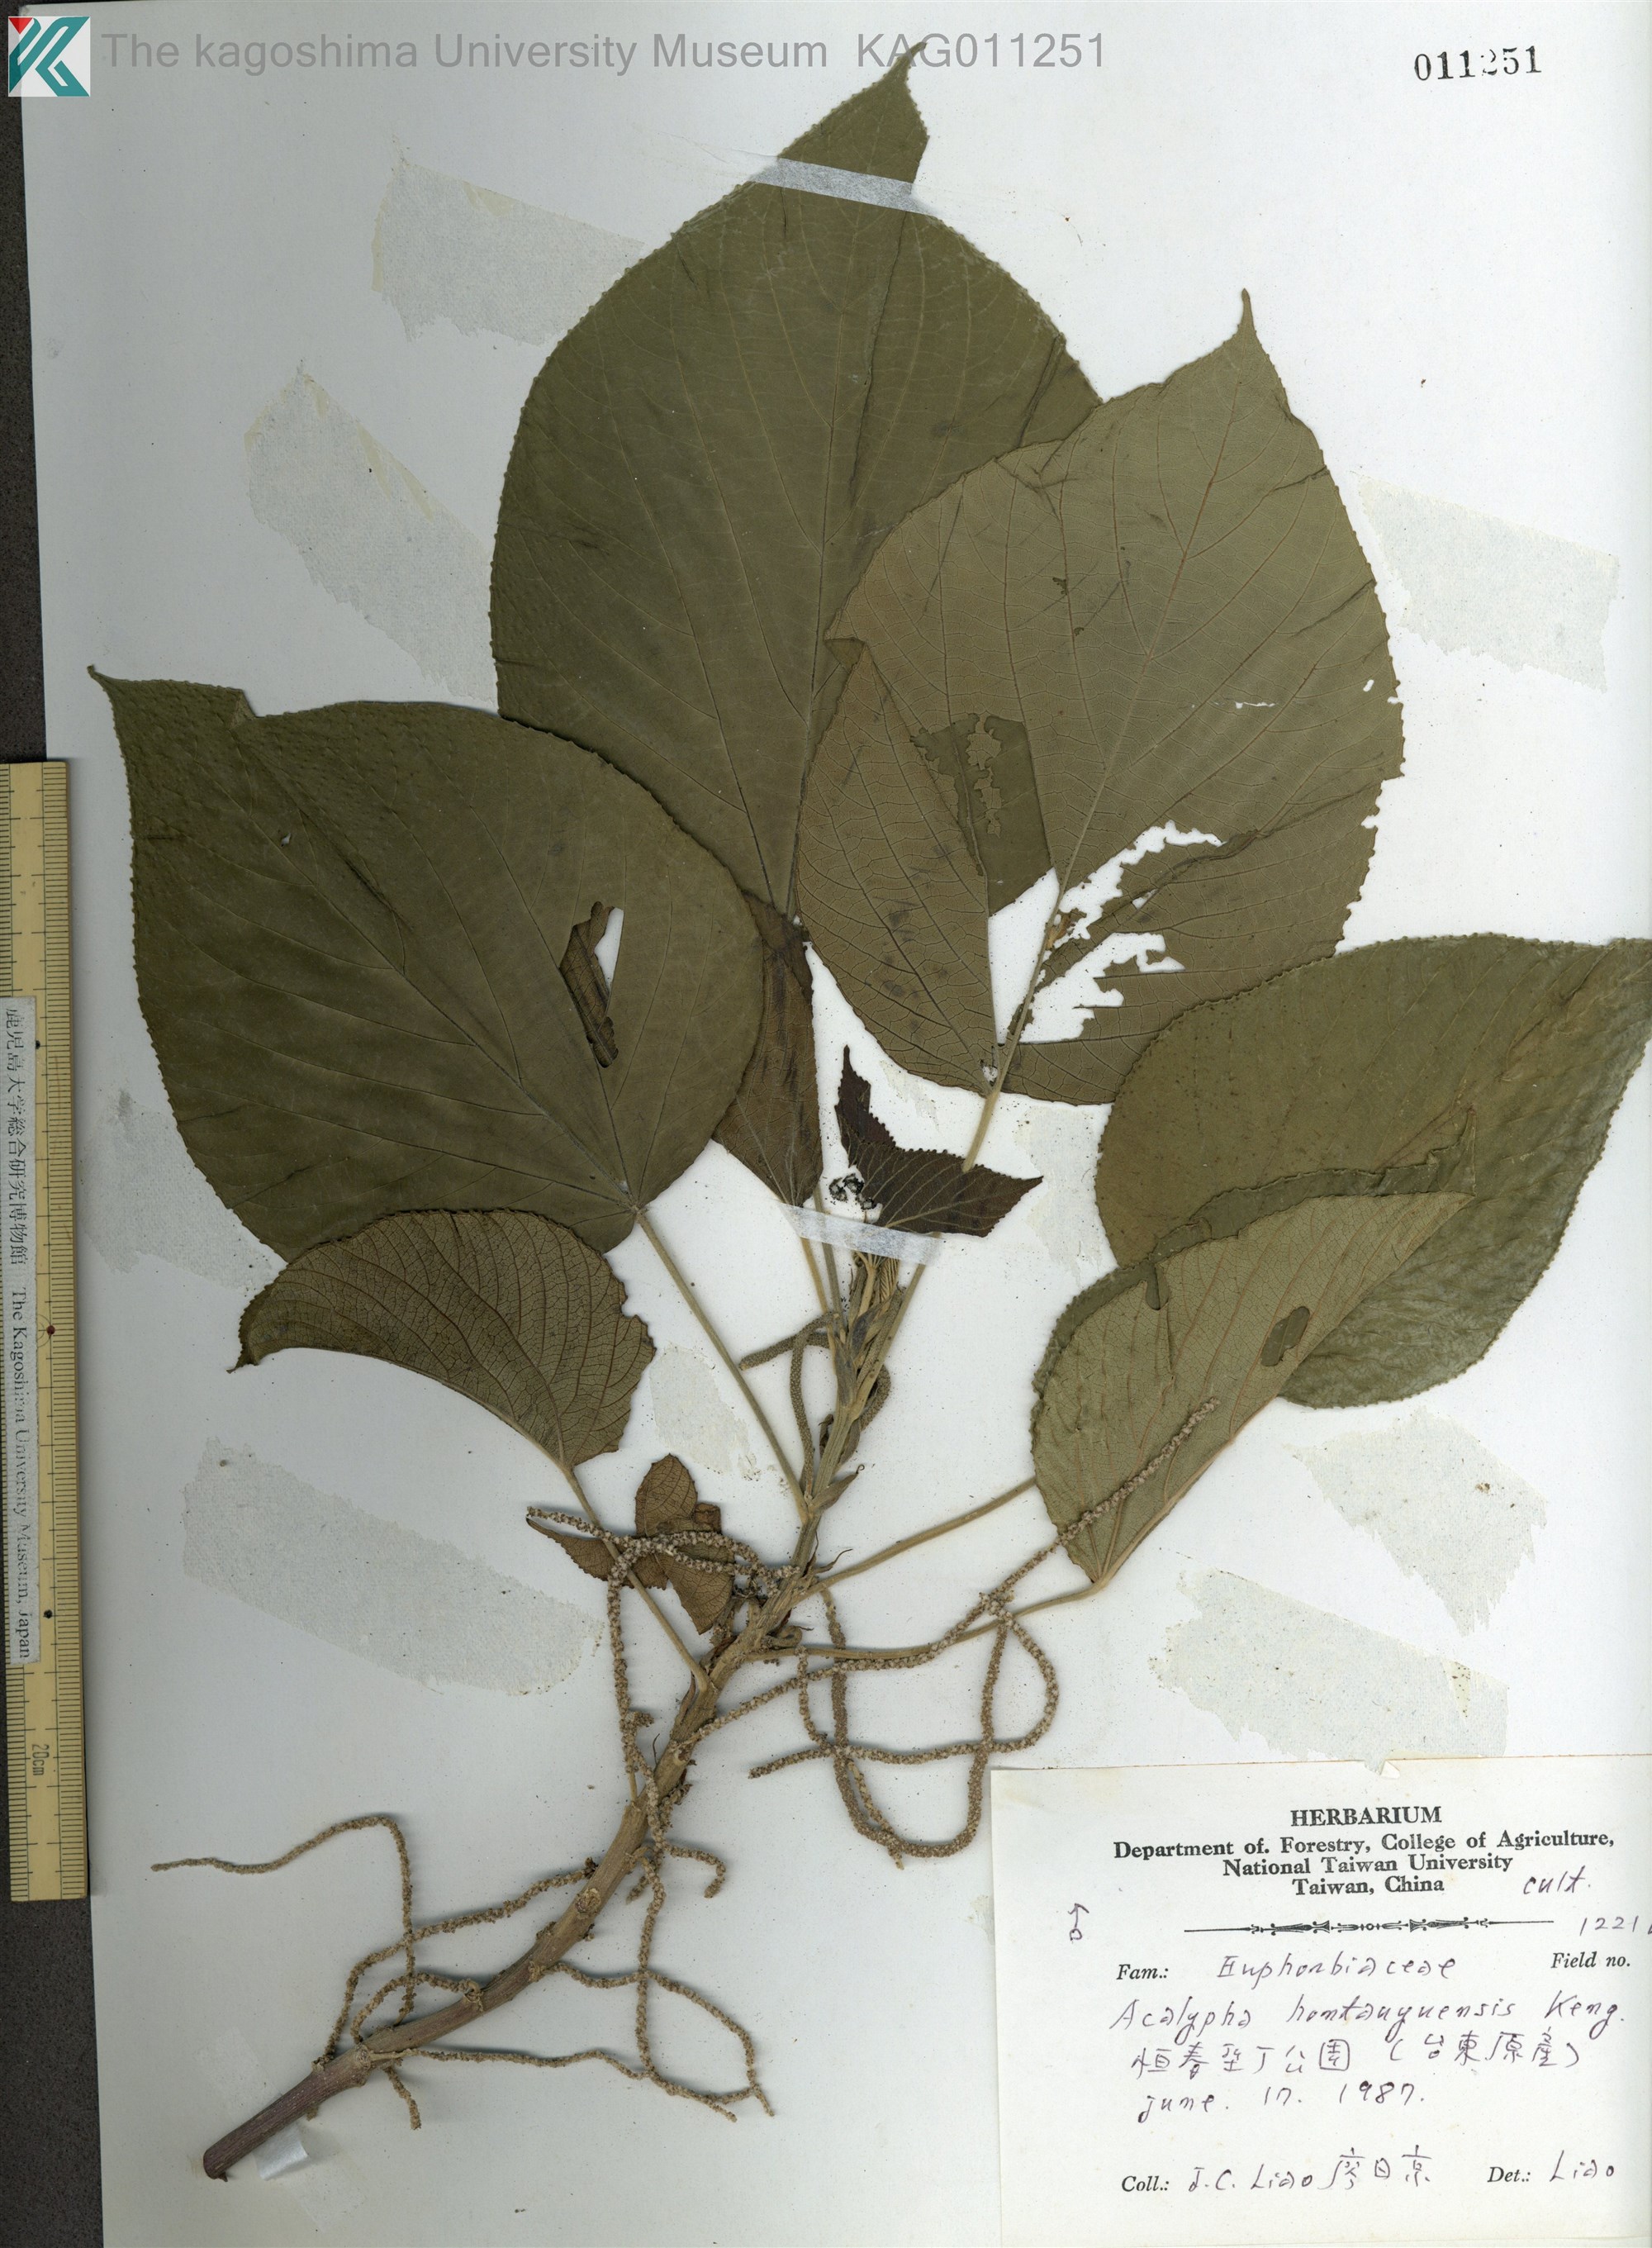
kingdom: Plantae
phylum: Tracheophyta
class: Magnoliopsida
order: Malpighiales
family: Euphorbiaceae
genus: Acalypha
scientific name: Acalypha
